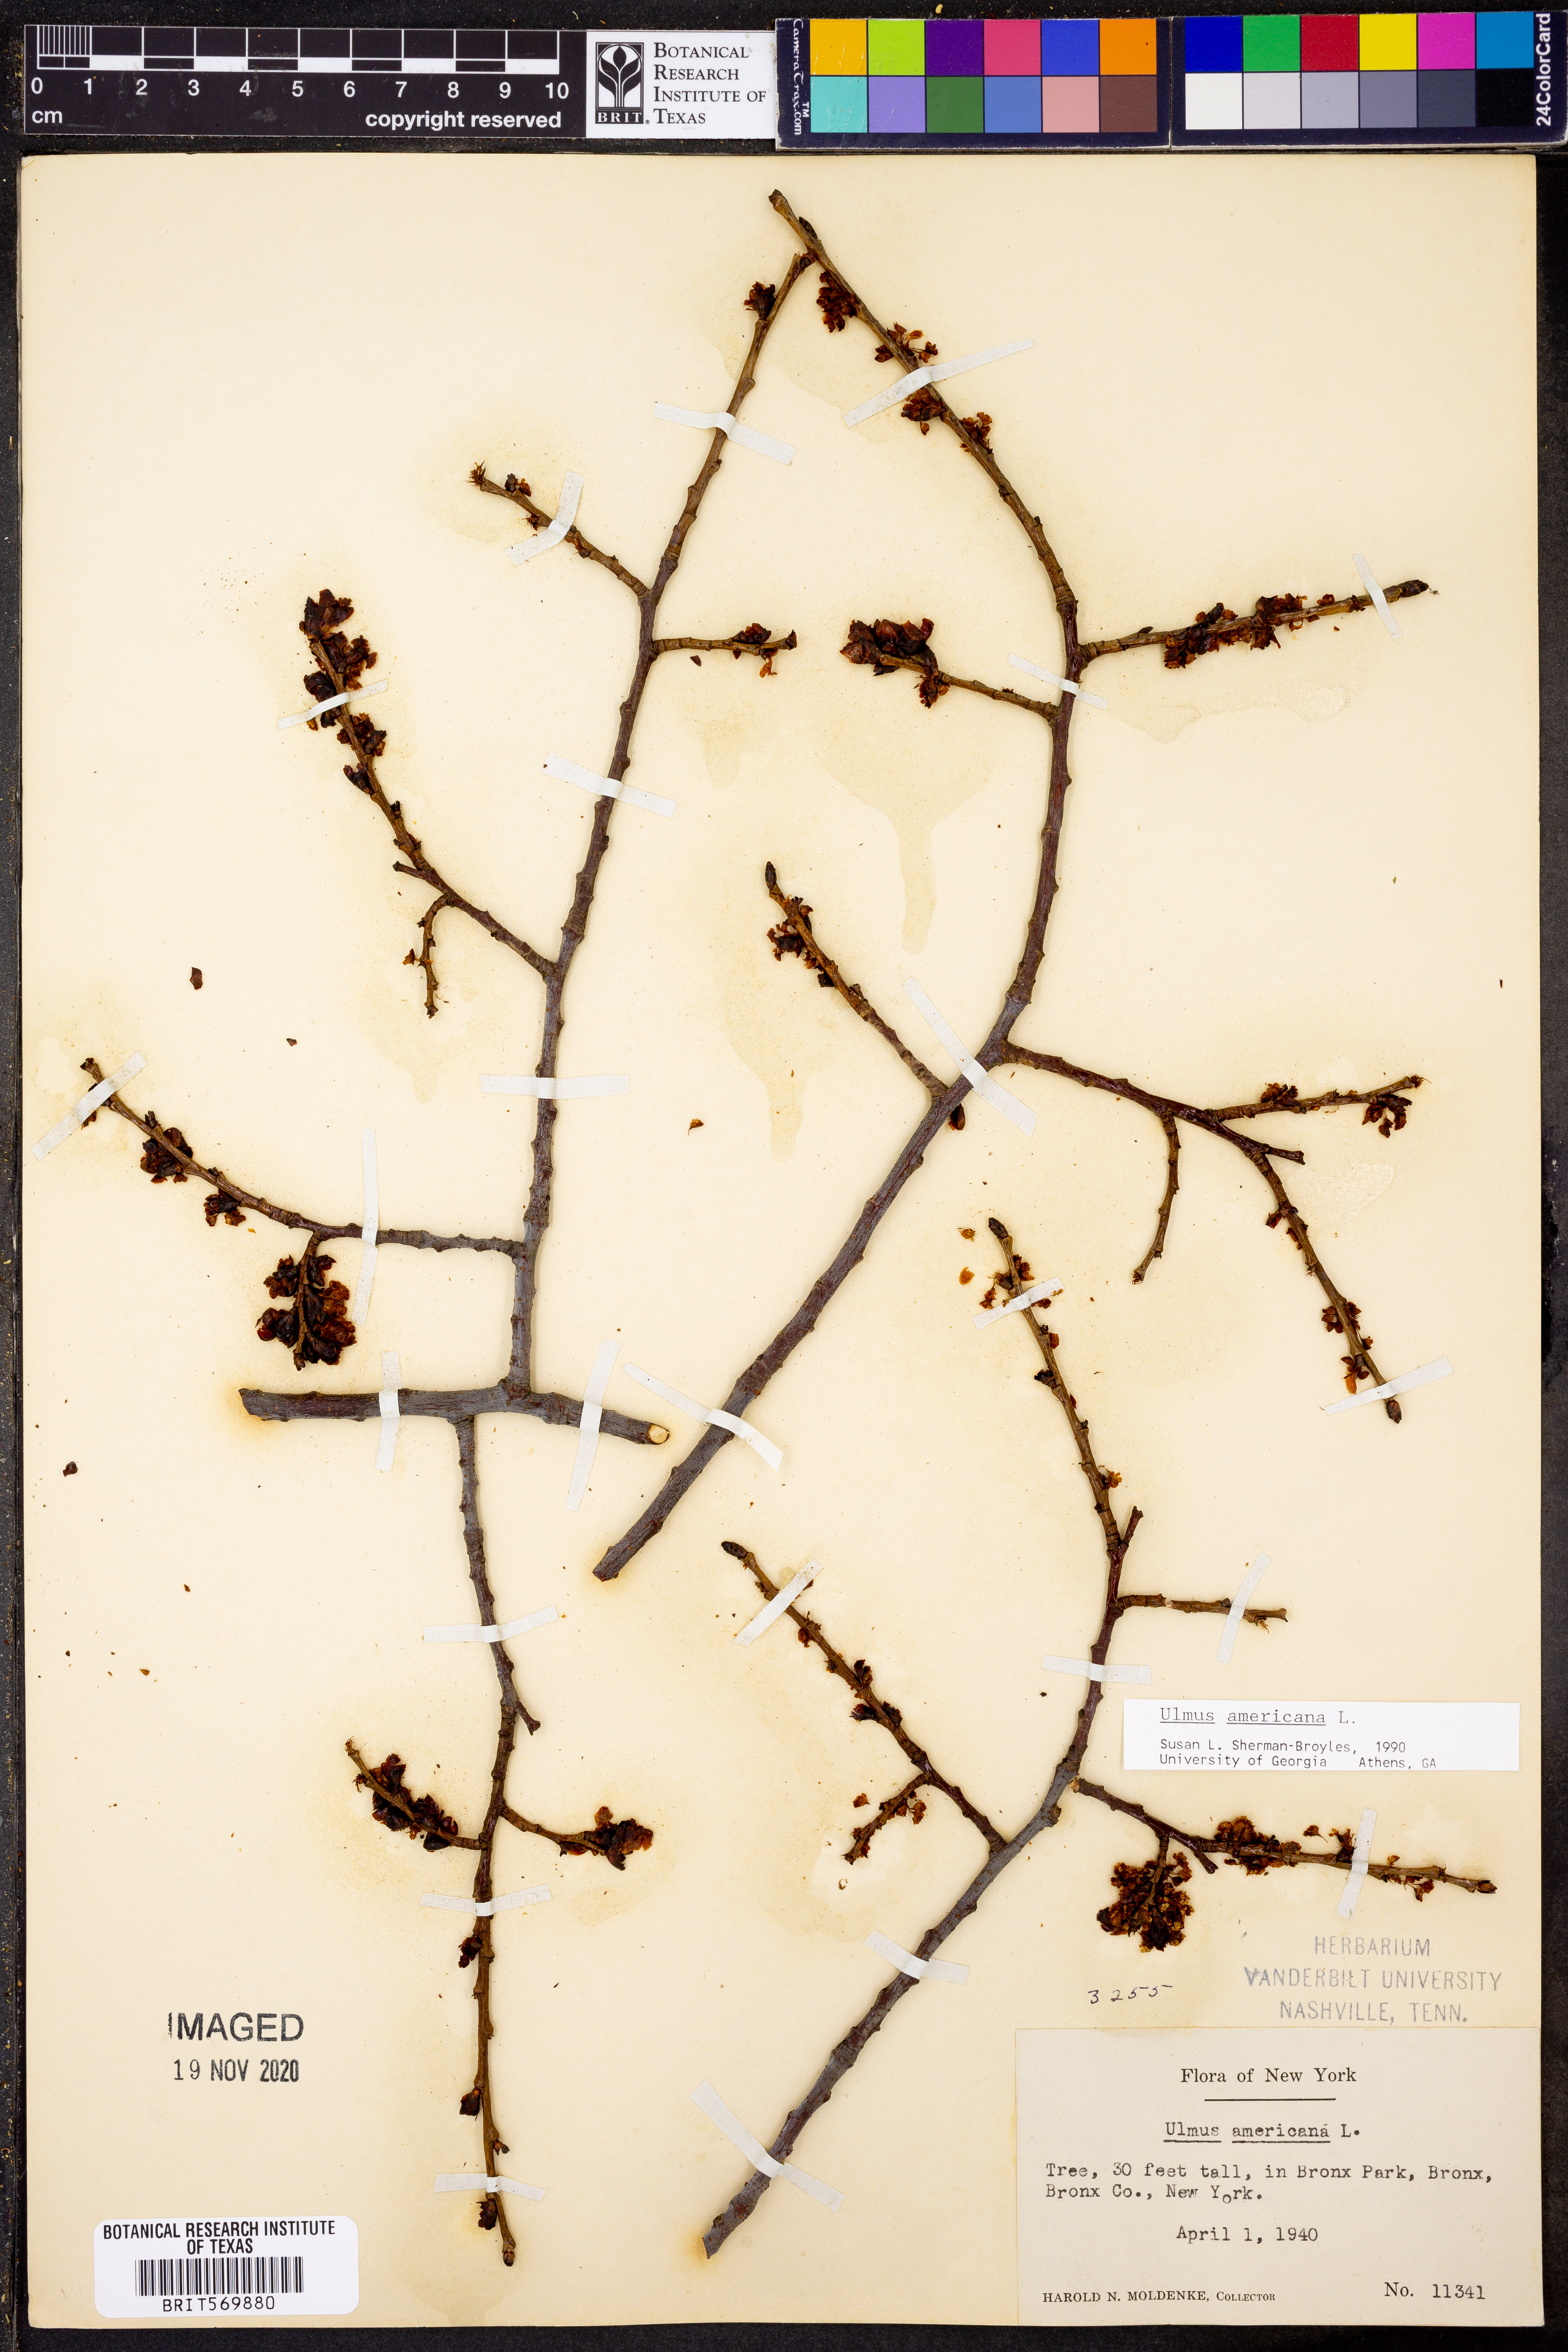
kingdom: Plantae
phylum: Tracheophyta
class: Magnoliopsida
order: Rosales
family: Ulmaceae
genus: Ulmus
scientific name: Ulmus americana
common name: American elm
